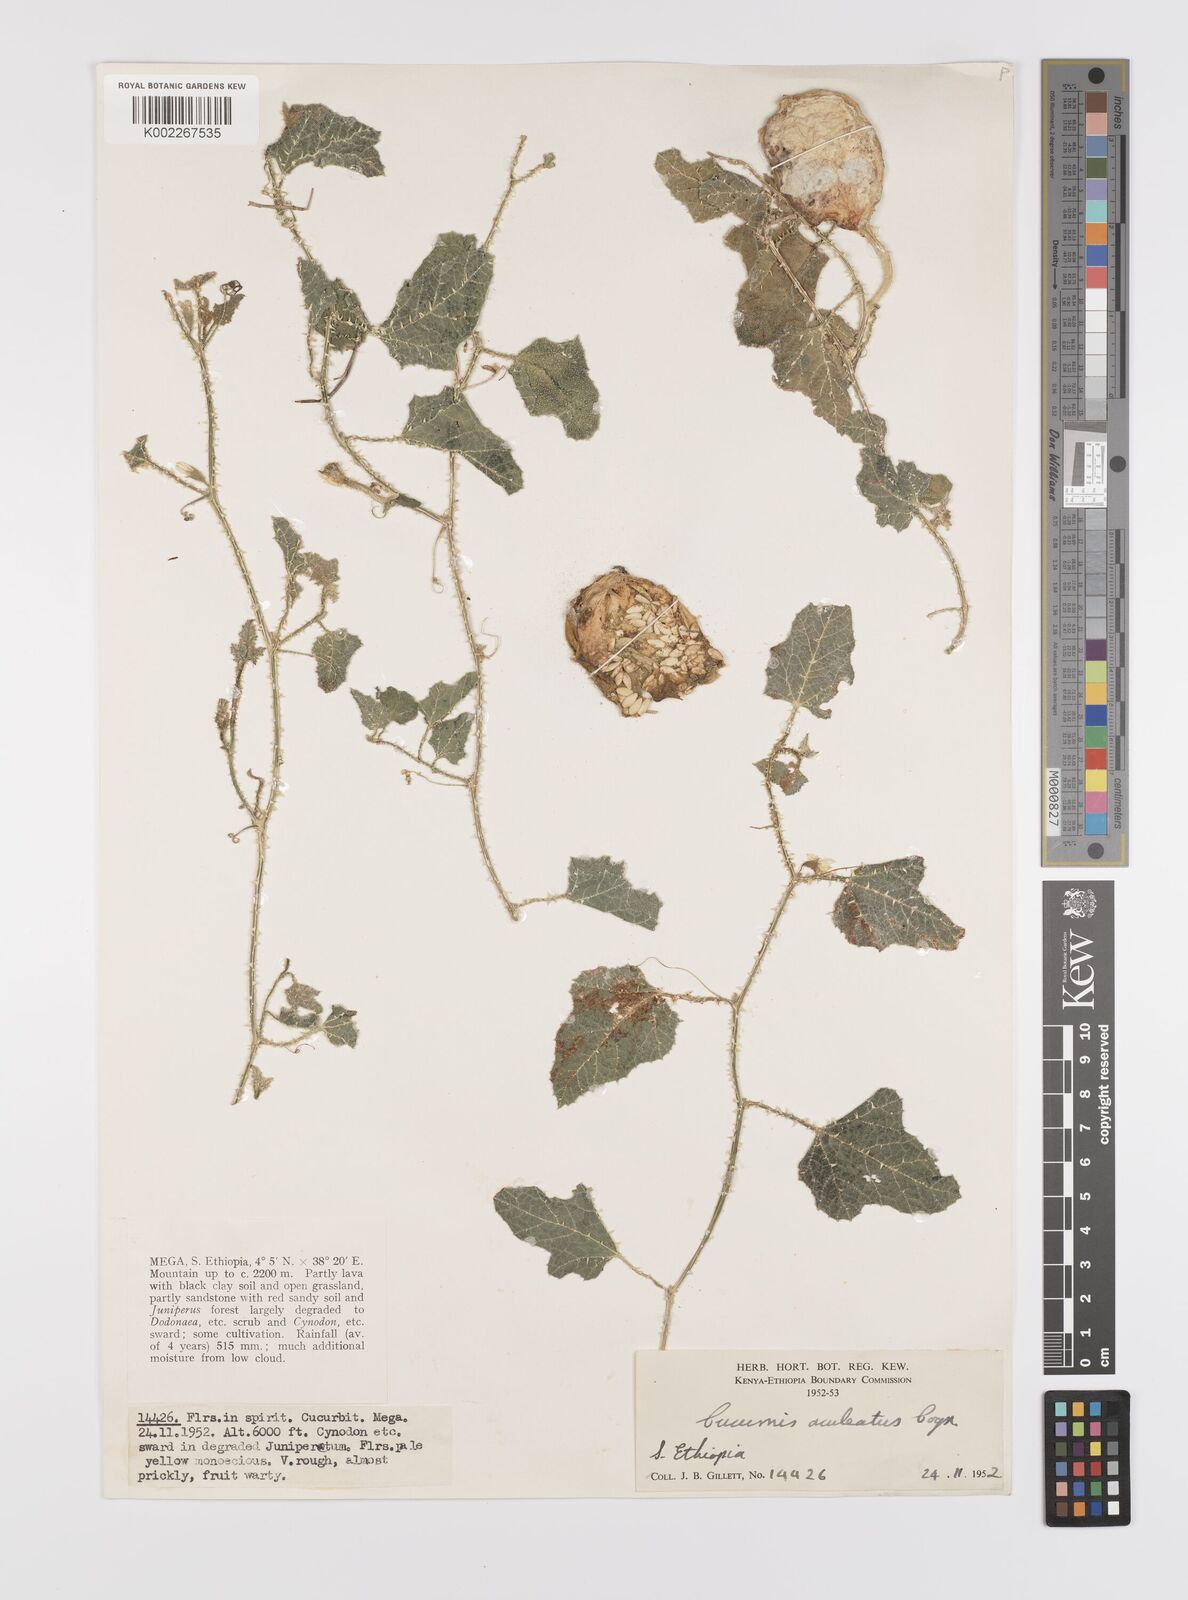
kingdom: Plantae
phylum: Tracheophyta
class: Magnoliopsida
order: Cucurbitales
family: Cucurbitaceae
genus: Cucumis
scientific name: Cucumis aculeatus
